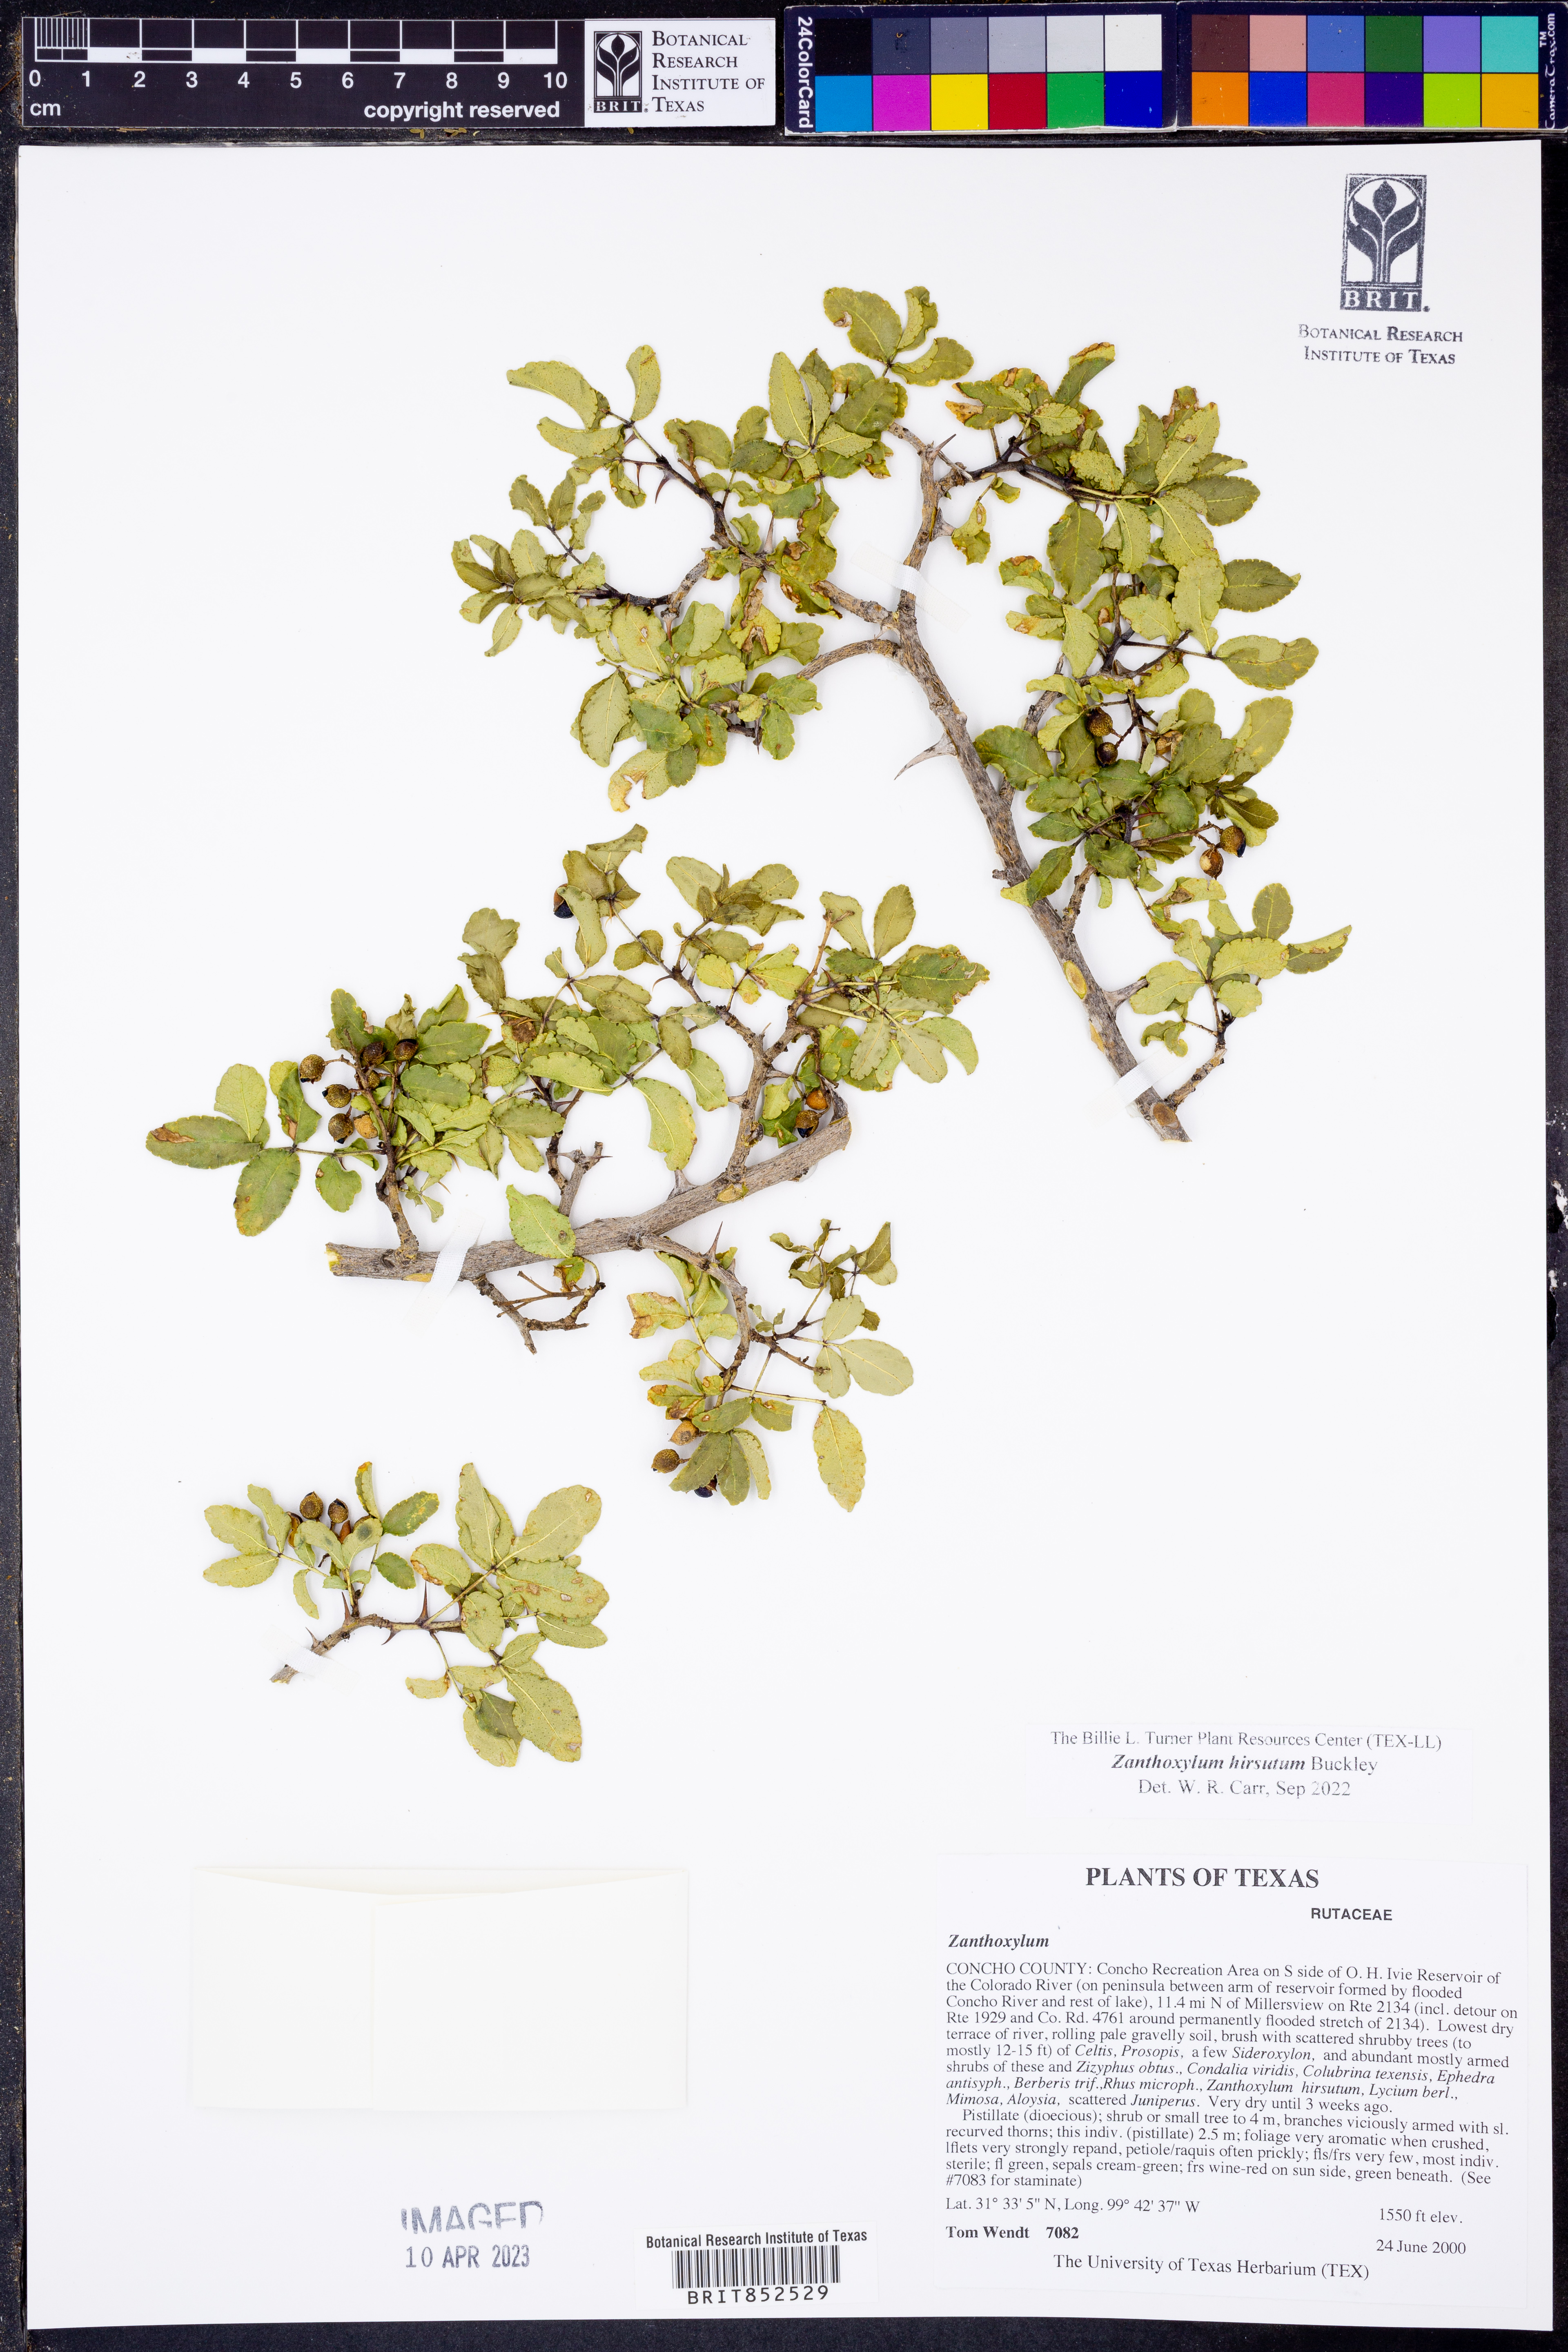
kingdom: Plantae
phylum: Tracheophyta
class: Magnoliopsida
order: Sapindales
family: Rutaceae
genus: Zanthoxylum
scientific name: Zanthoxylum clava-herculis
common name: Hercules'-club
